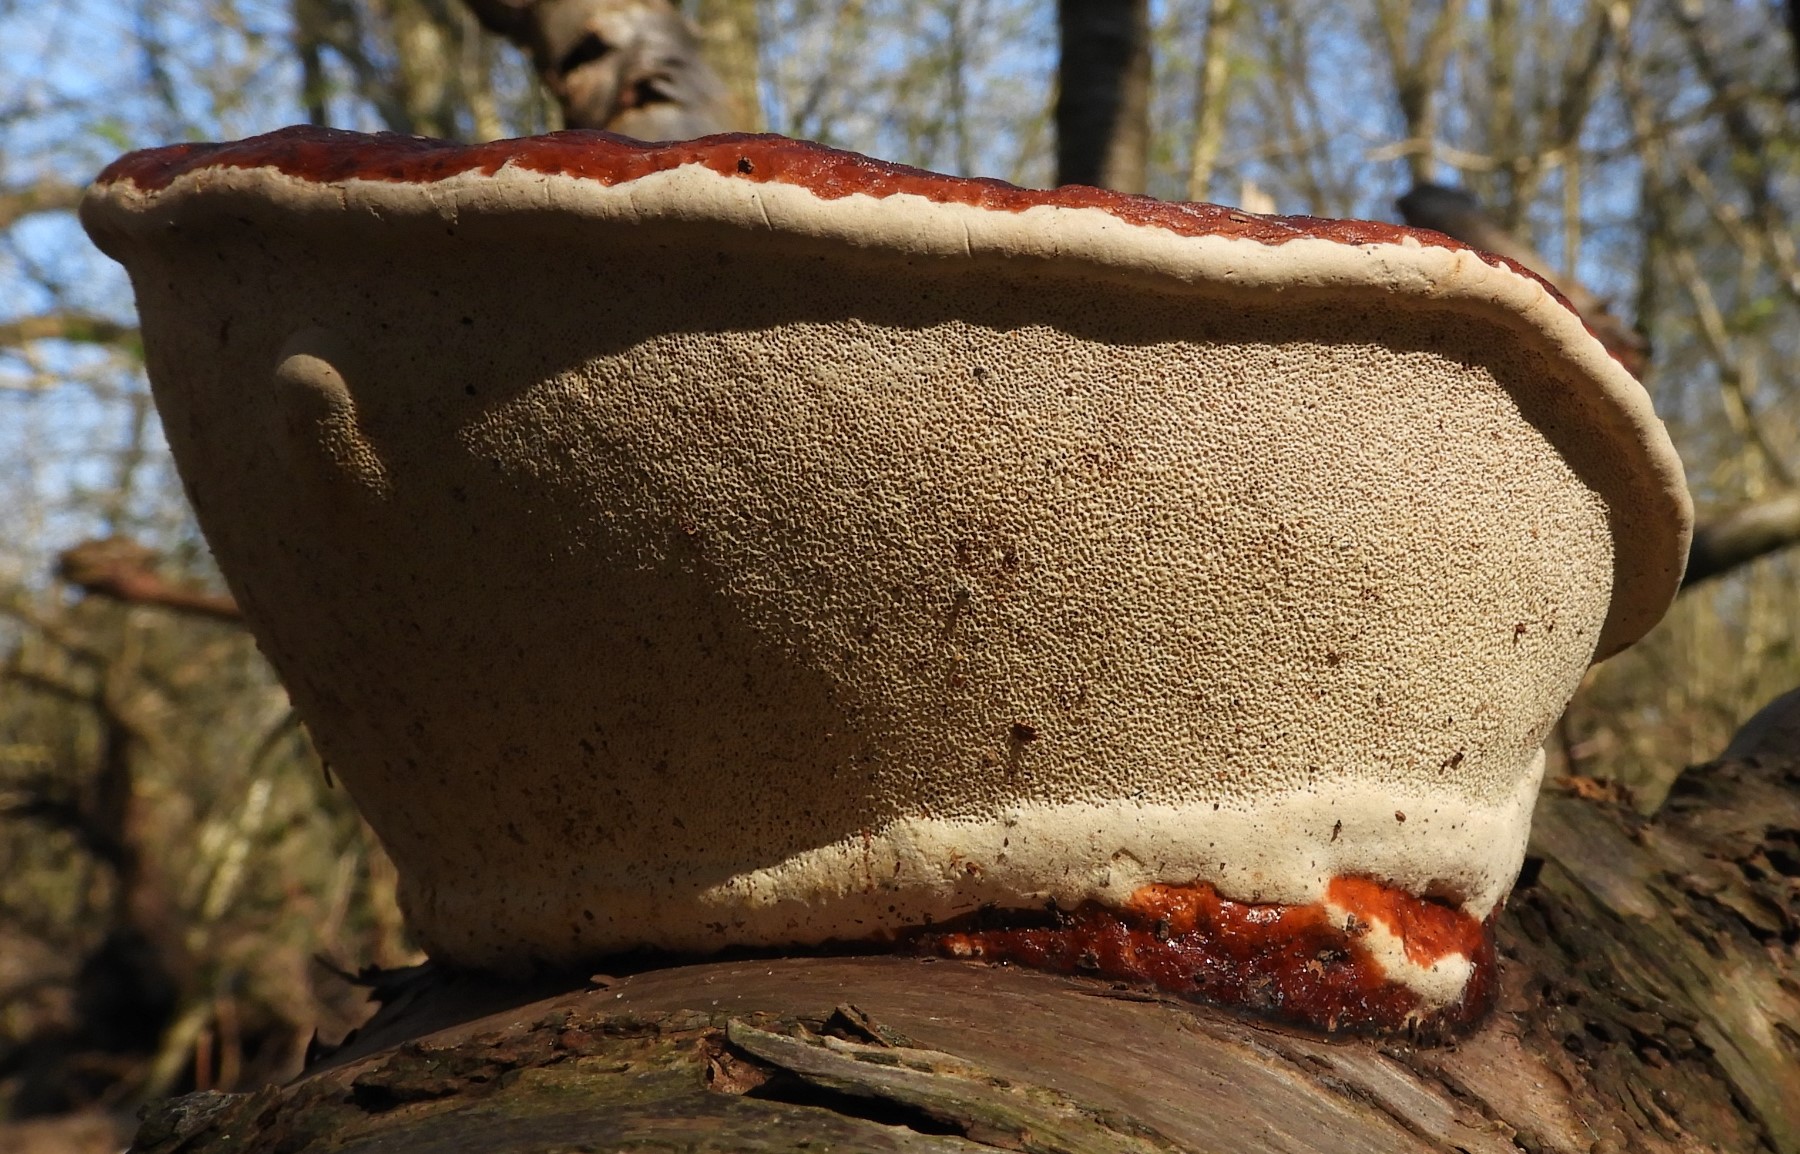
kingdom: Fungi
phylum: Basidiomycota
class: Agaricomycetes
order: Polyporales
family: Fomitopsidaceae
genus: Fomitopsis
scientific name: Fomitopsis pinicola
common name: randbæltet hovporesvamp
